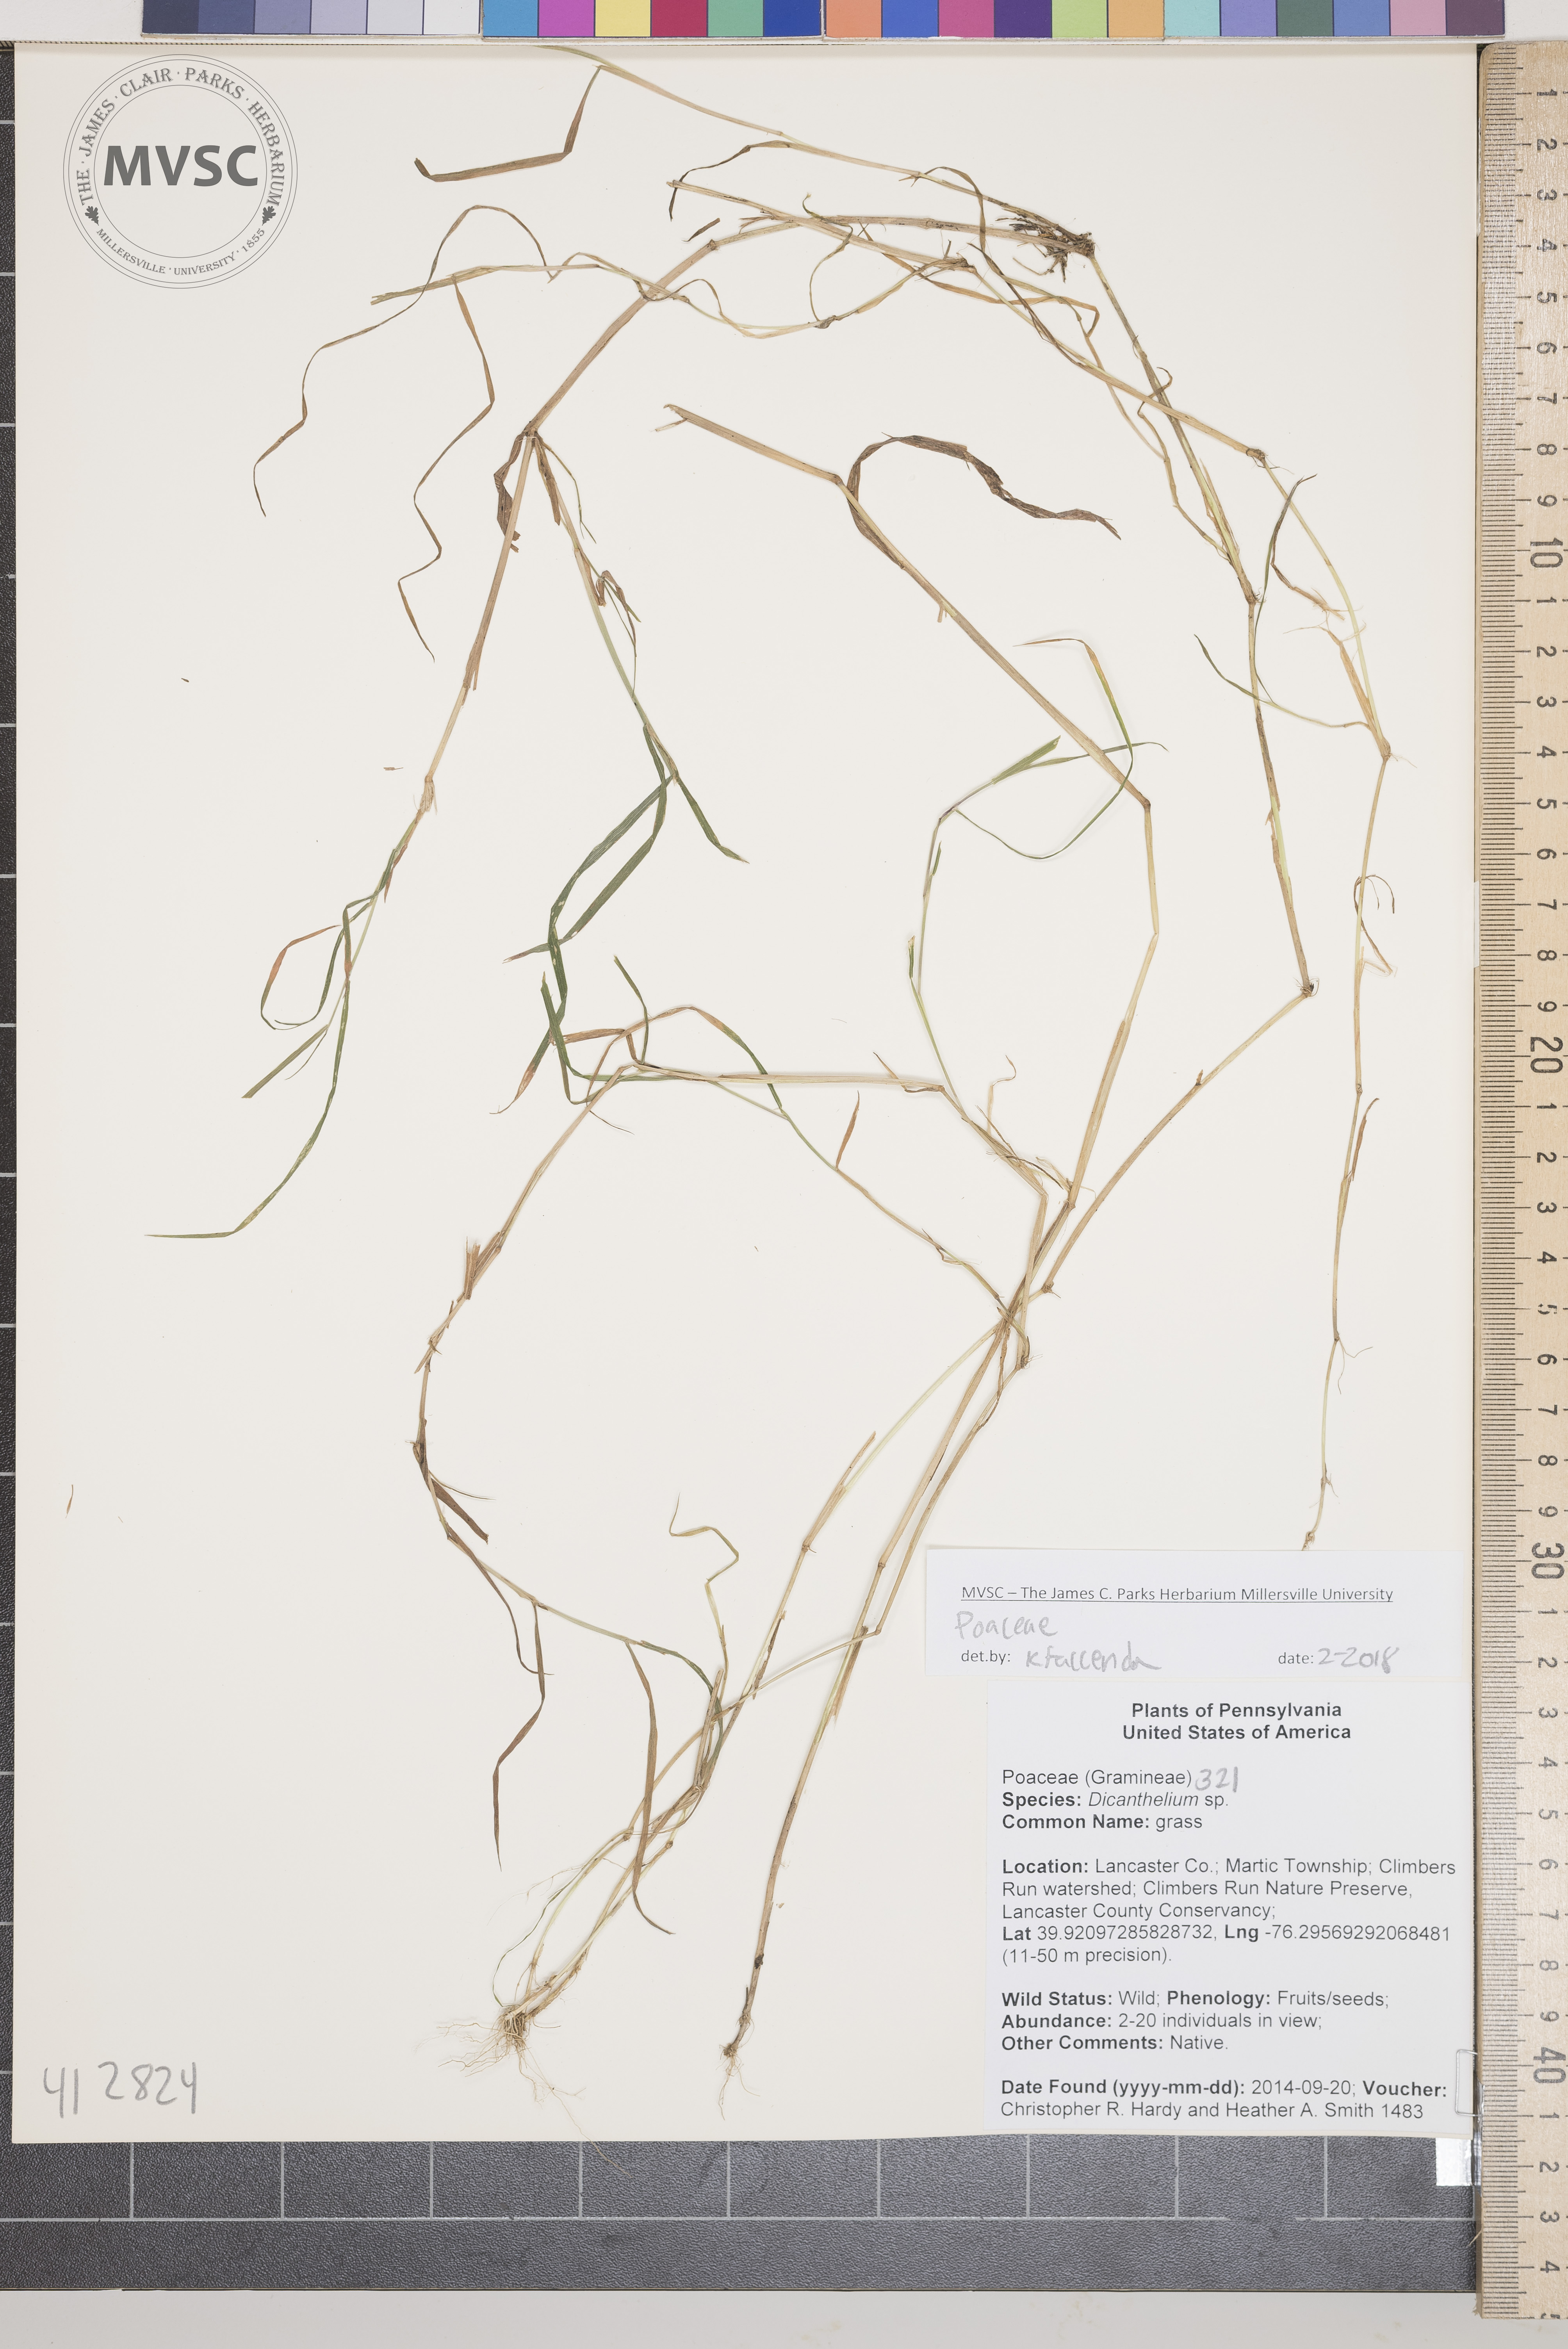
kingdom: Plantae
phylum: Tracheophyta
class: Liliopsida
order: Poales
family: Poaceae
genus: Dichanthelium
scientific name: Dichanthelium
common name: grass
